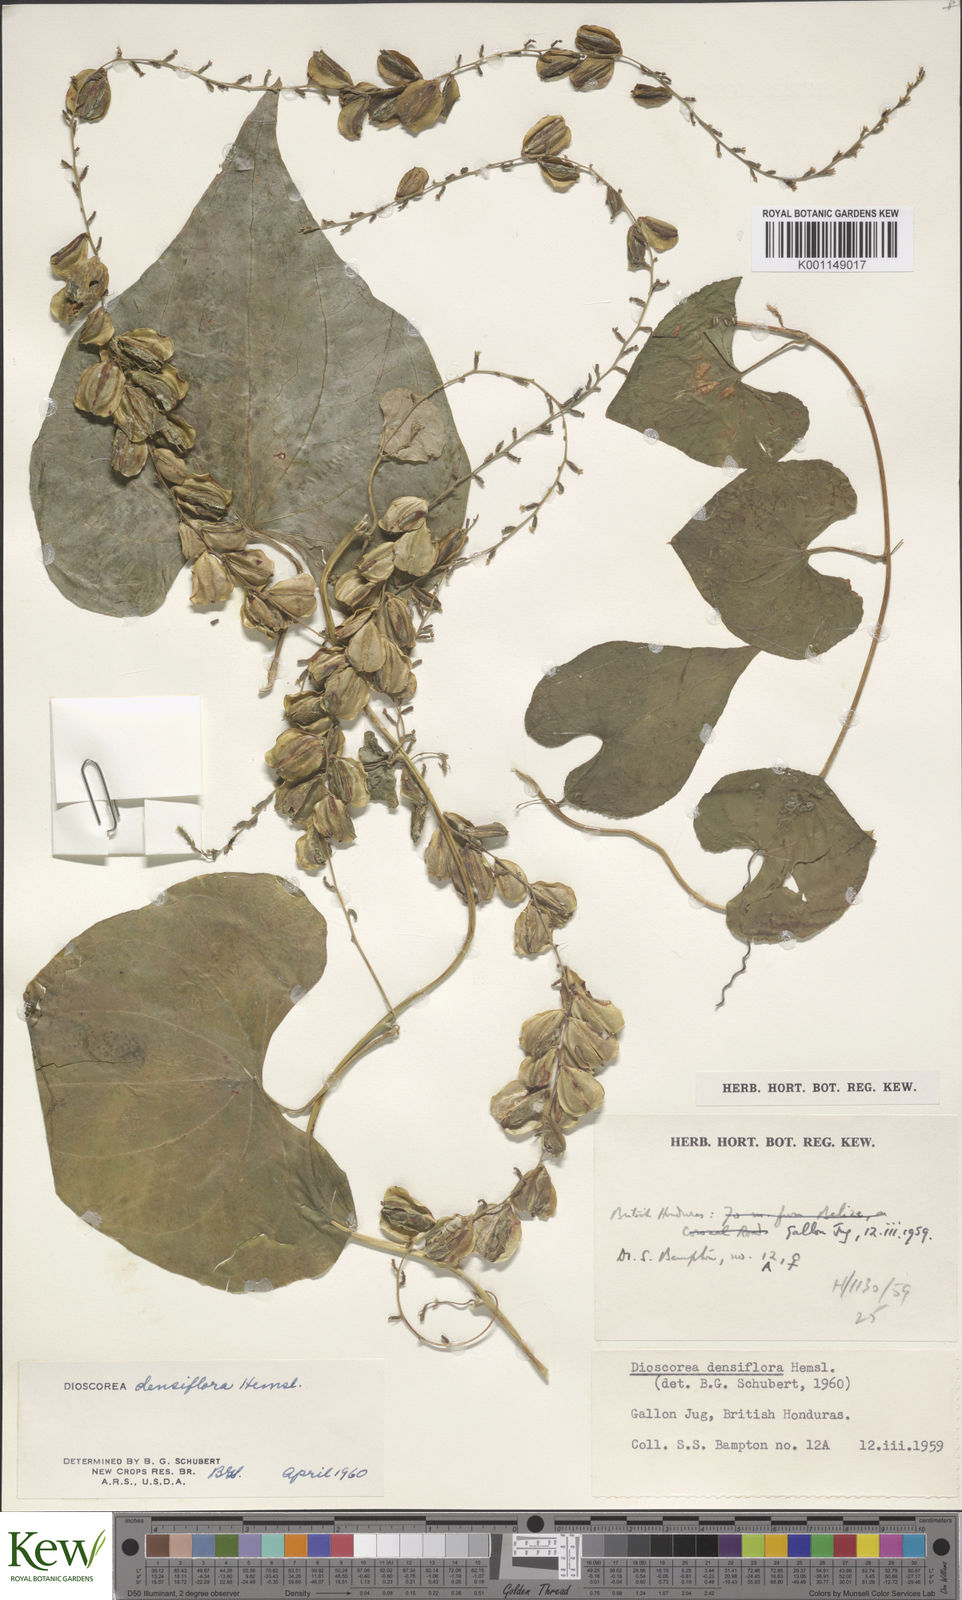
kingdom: Plantae
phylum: Tracheophyta
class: Liliopsida
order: Dioscoreales
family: Dioscoreaceae
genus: Dioscorea
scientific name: Dioscorea densiflora
